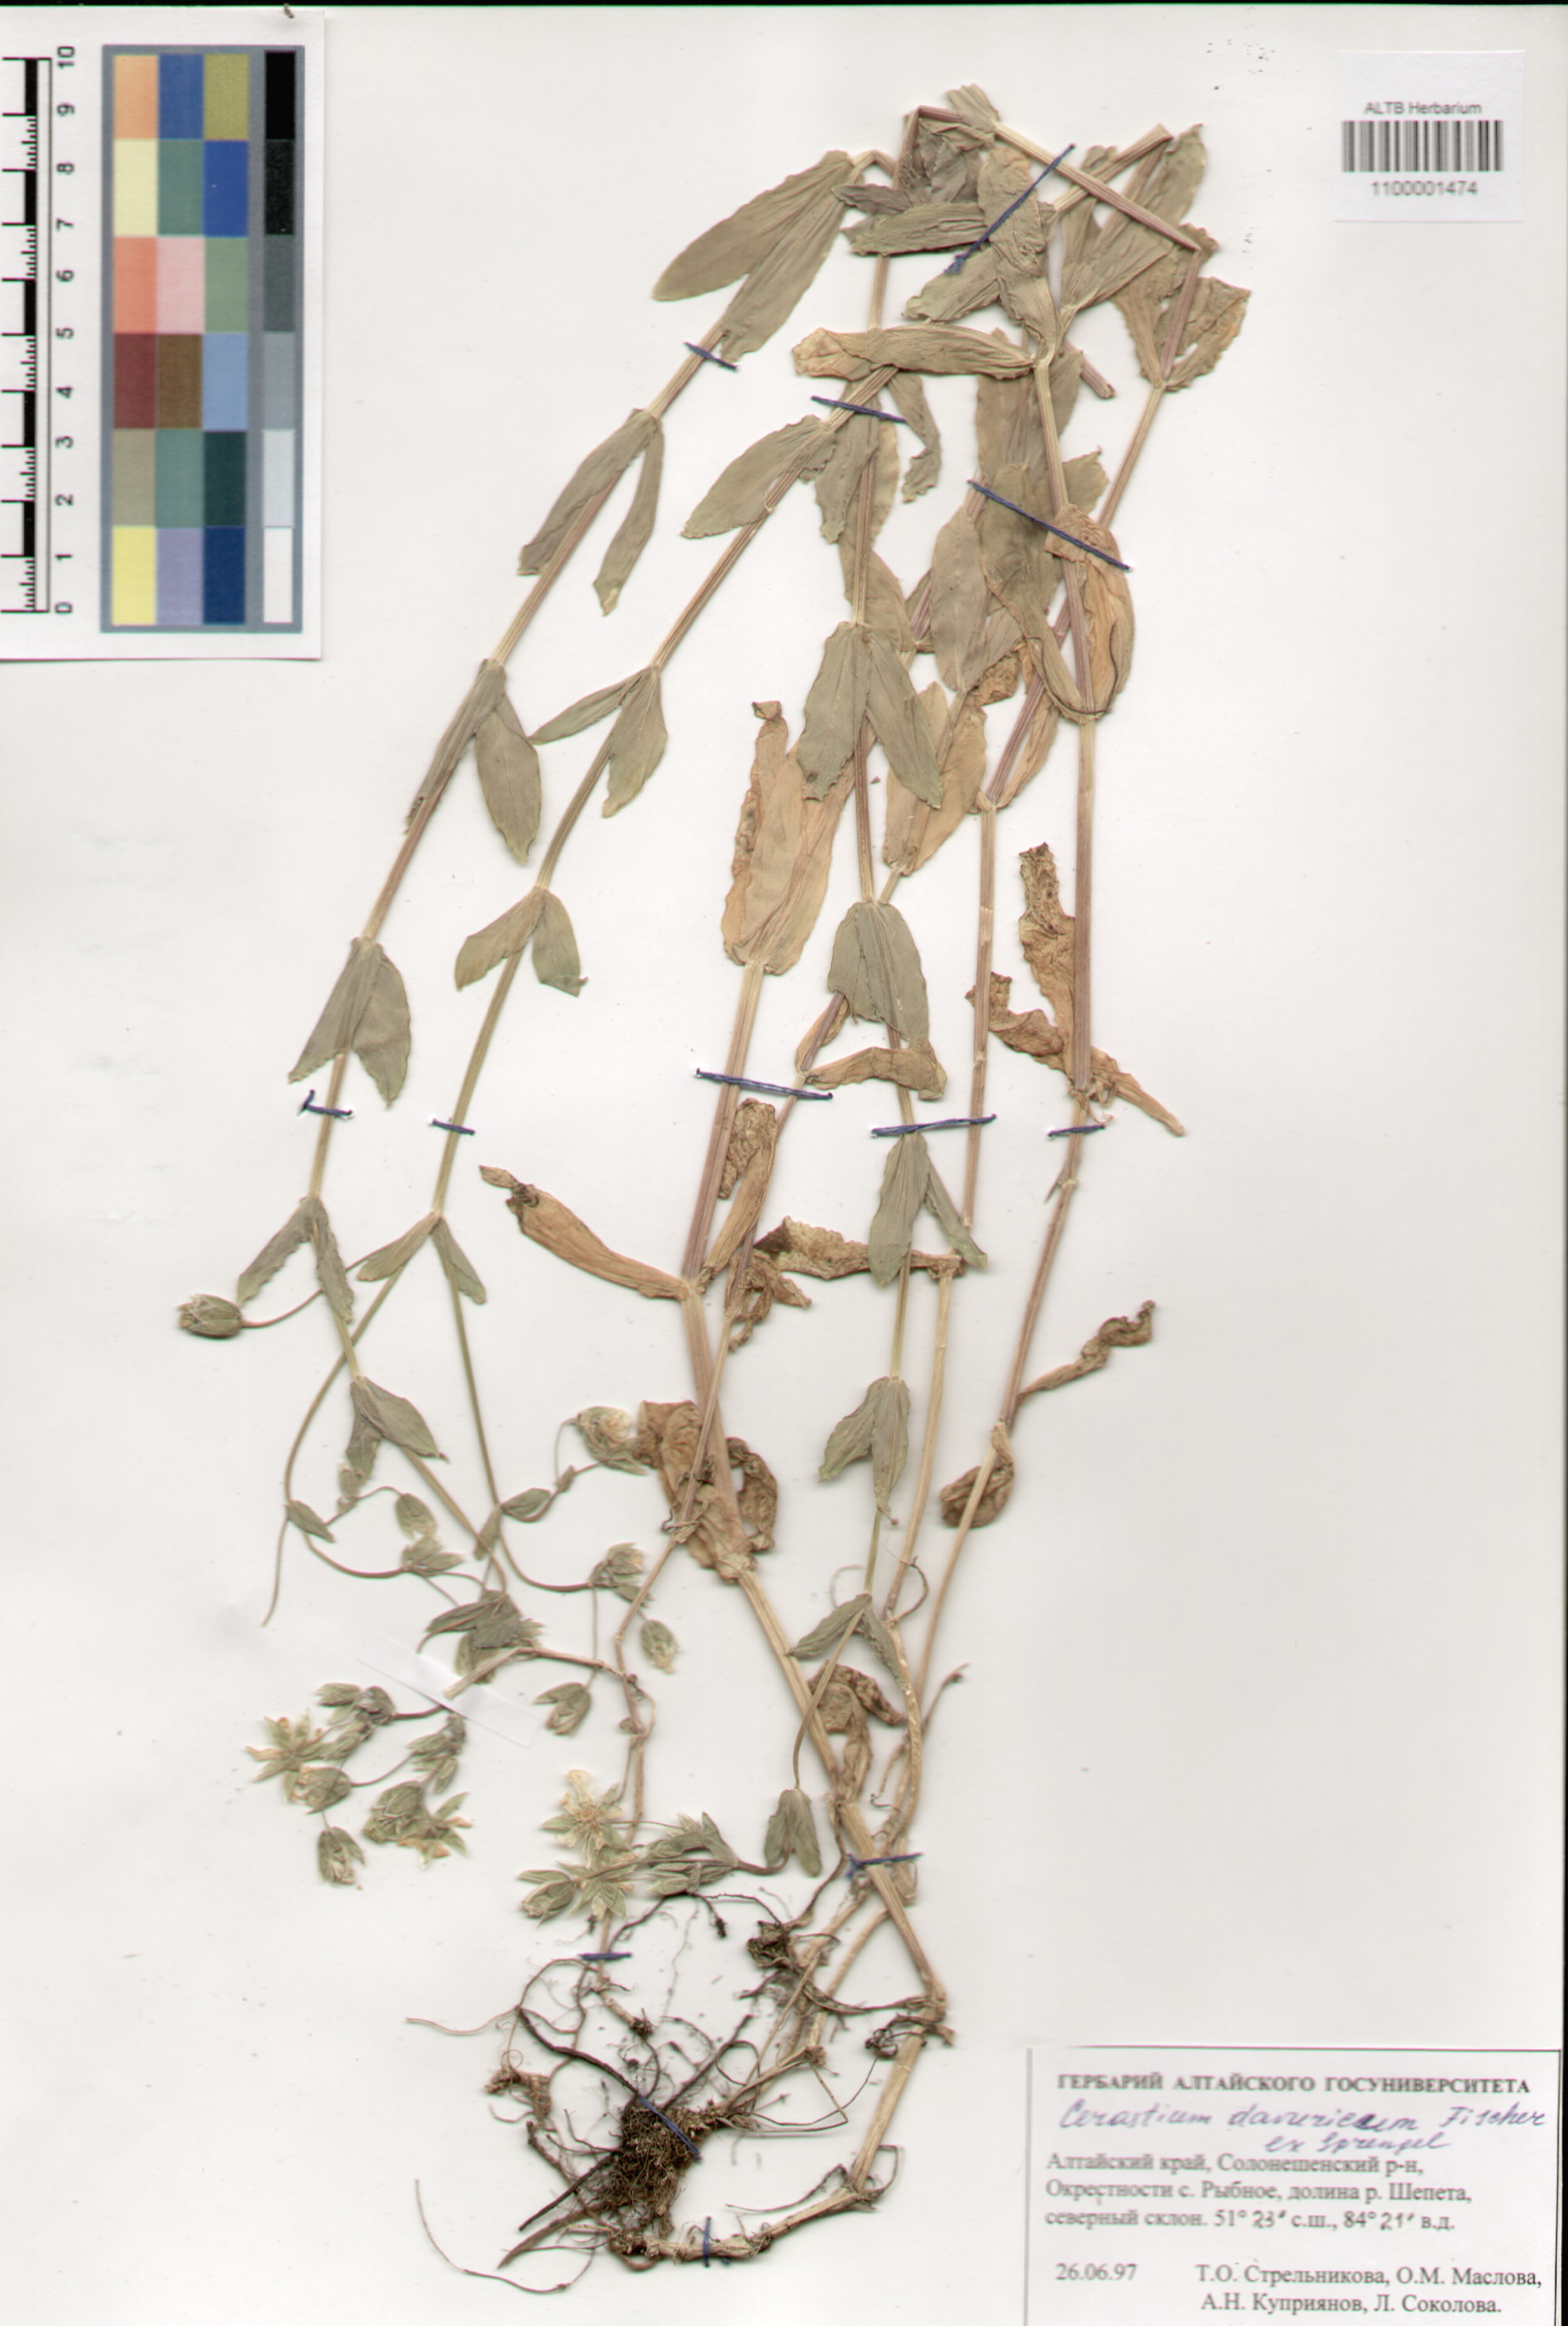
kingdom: Plantae
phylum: Tracheophyta
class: Magnoliopsida
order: Caryophyllales
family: Caryophyllaceae
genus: Dichodon
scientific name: Dichodon davuricum
